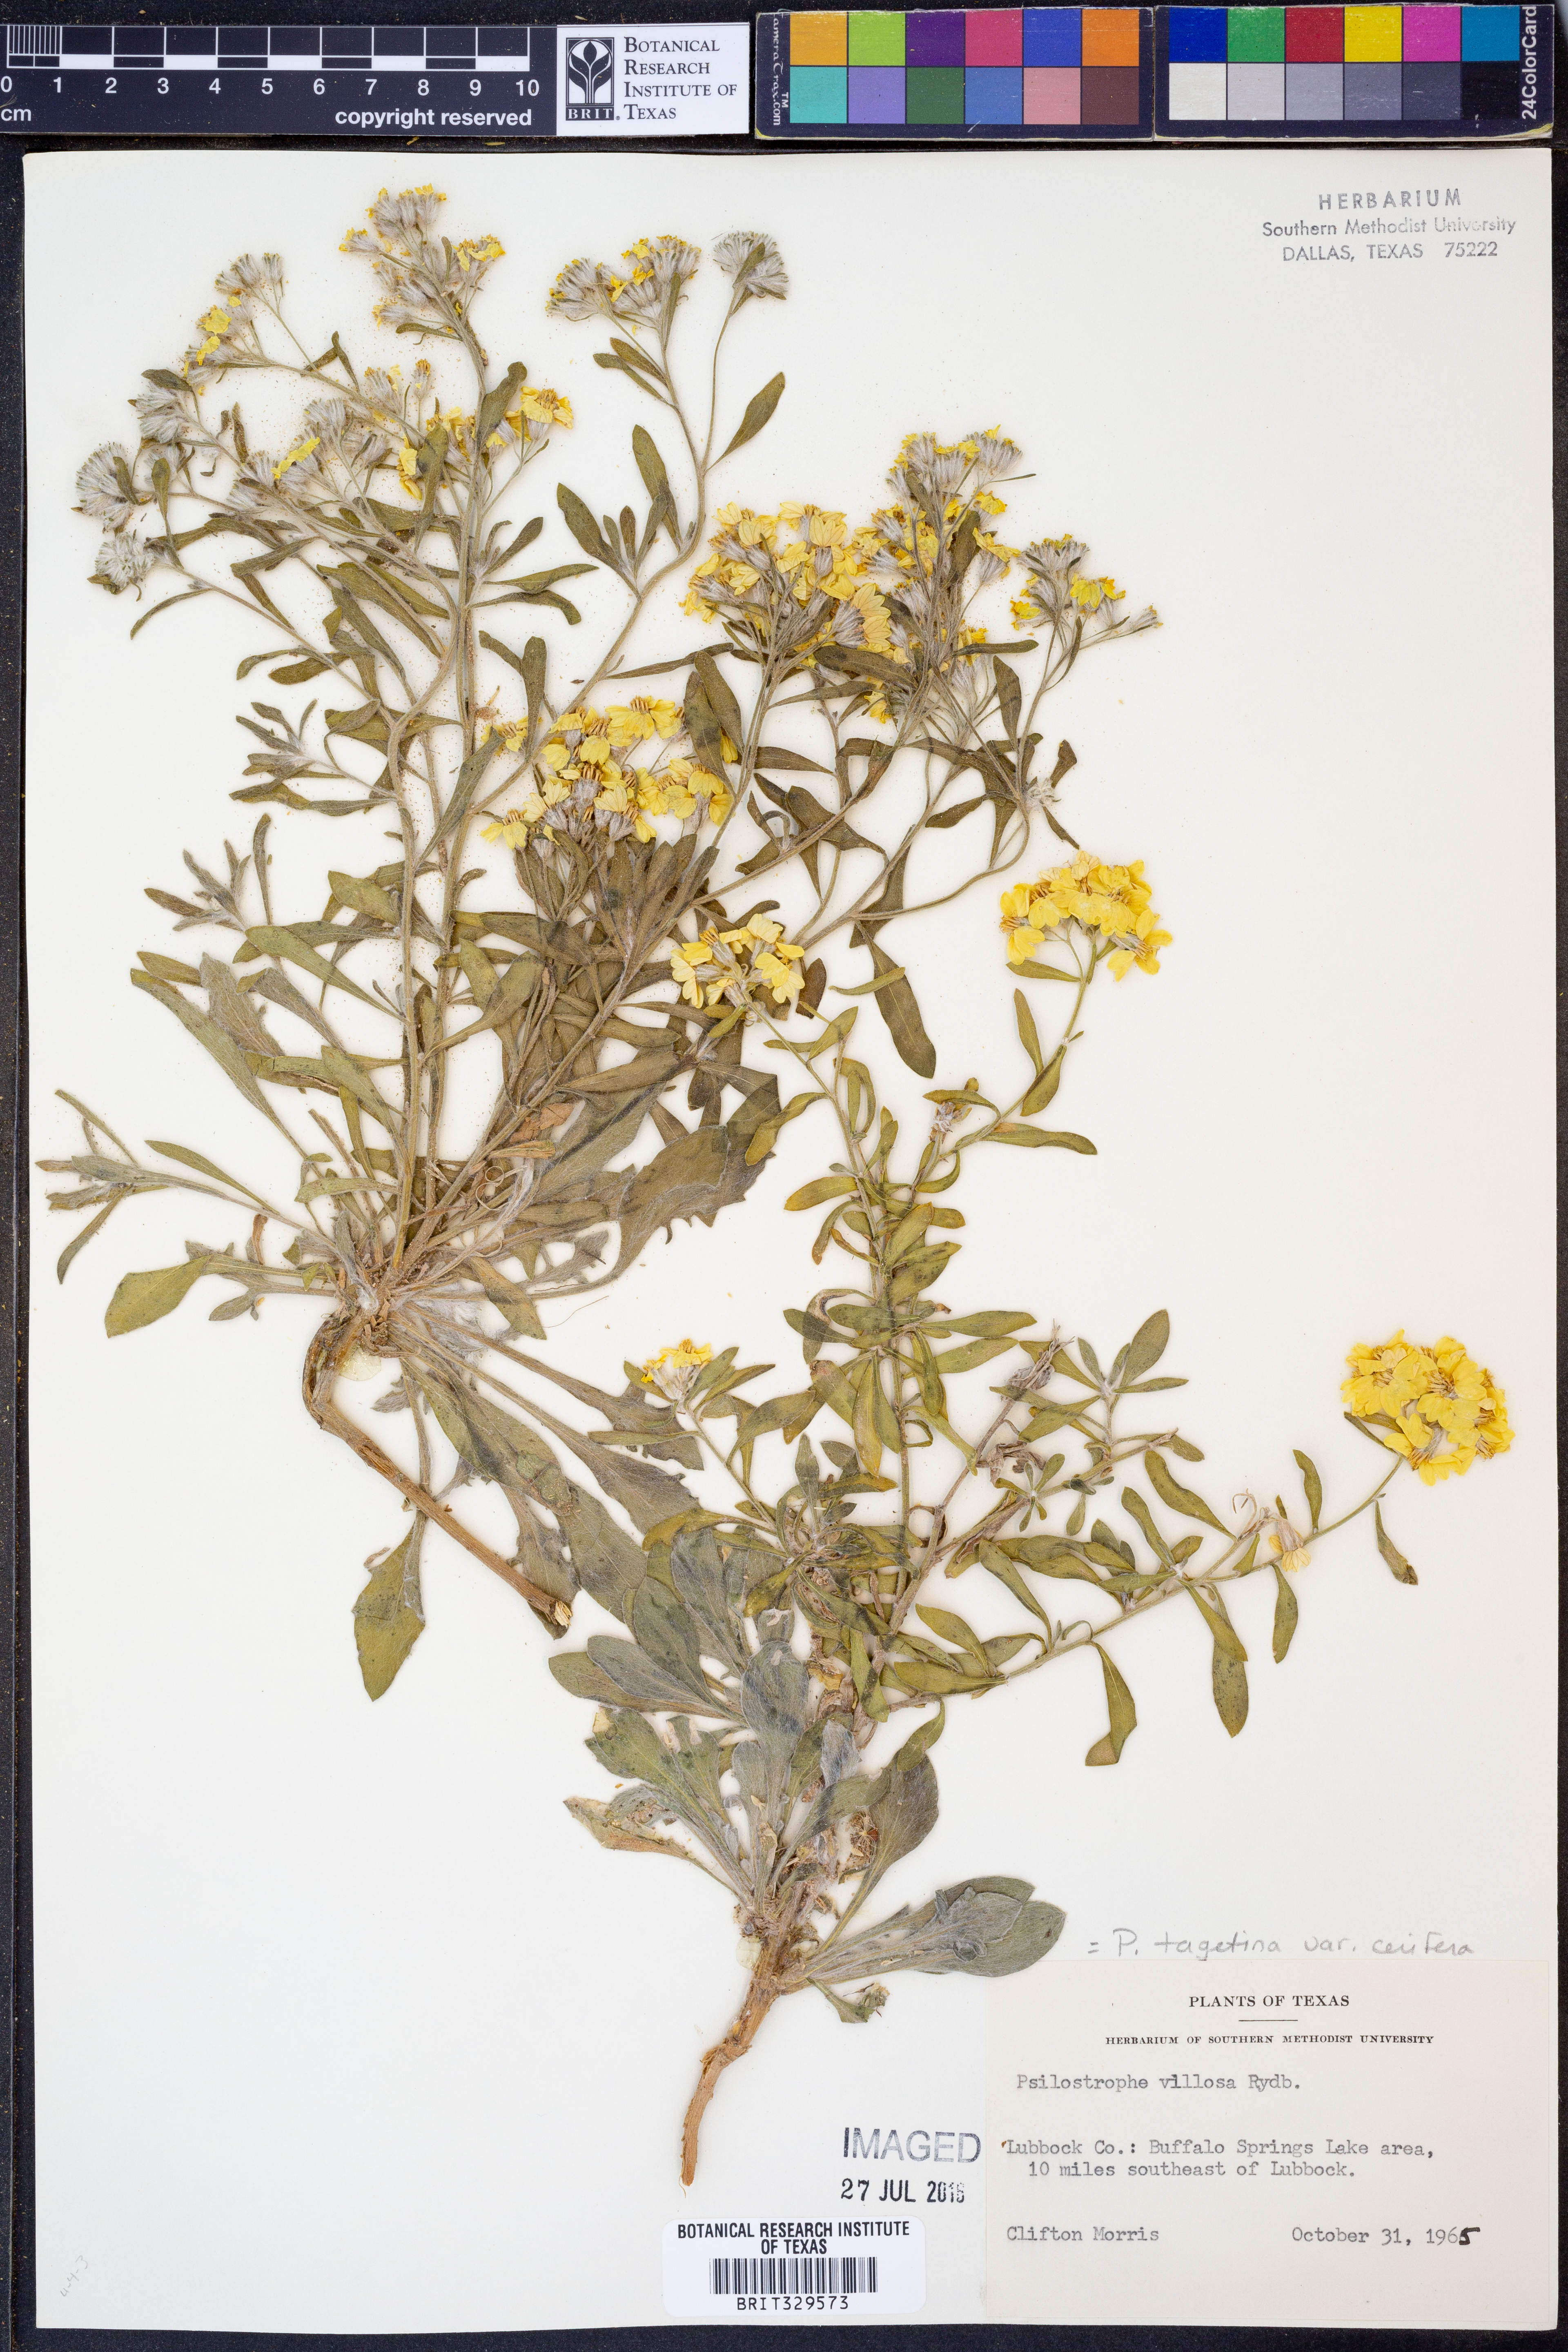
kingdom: Plantae
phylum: Tracheophyta
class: Magnoliopsida
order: Asterales
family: Asteraceae
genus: Psilostrophe
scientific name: Psilostrophe villosa
